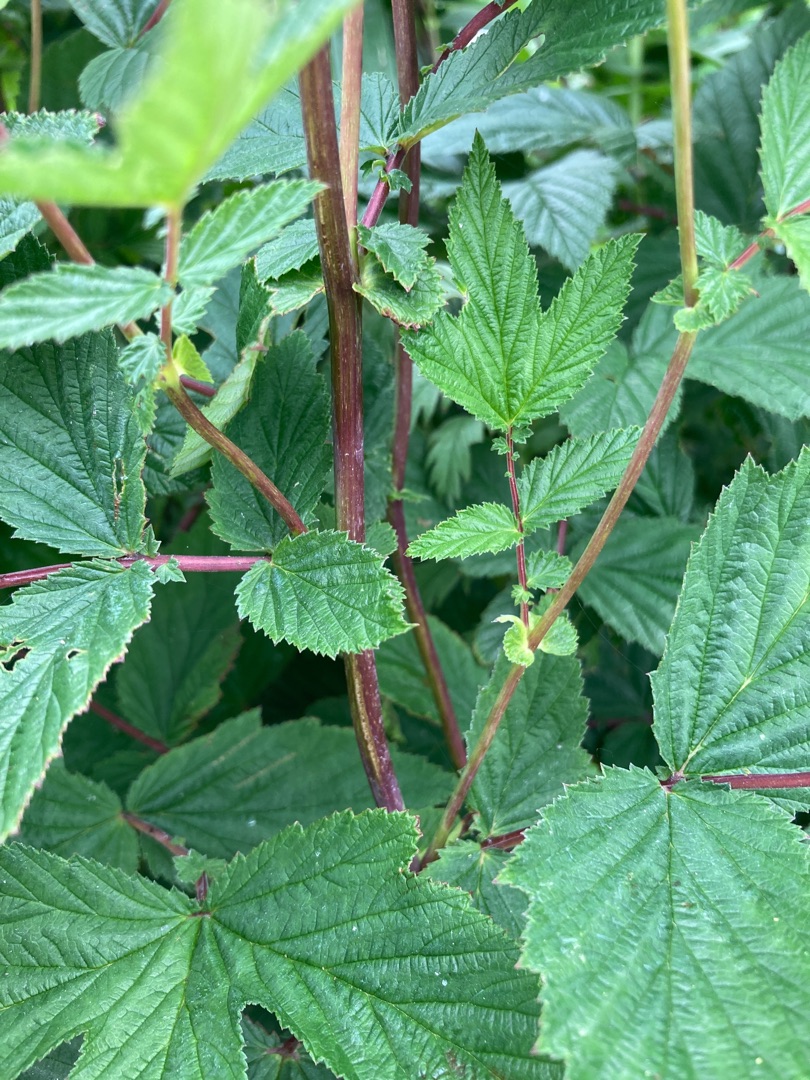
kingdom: Plantae
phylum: Tracheophyta
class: Magnoliopsida
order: Rosales
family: Rosaceae
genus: Filipendula
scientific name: Filipendula ulmaria
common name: Almindelig mjødurt
